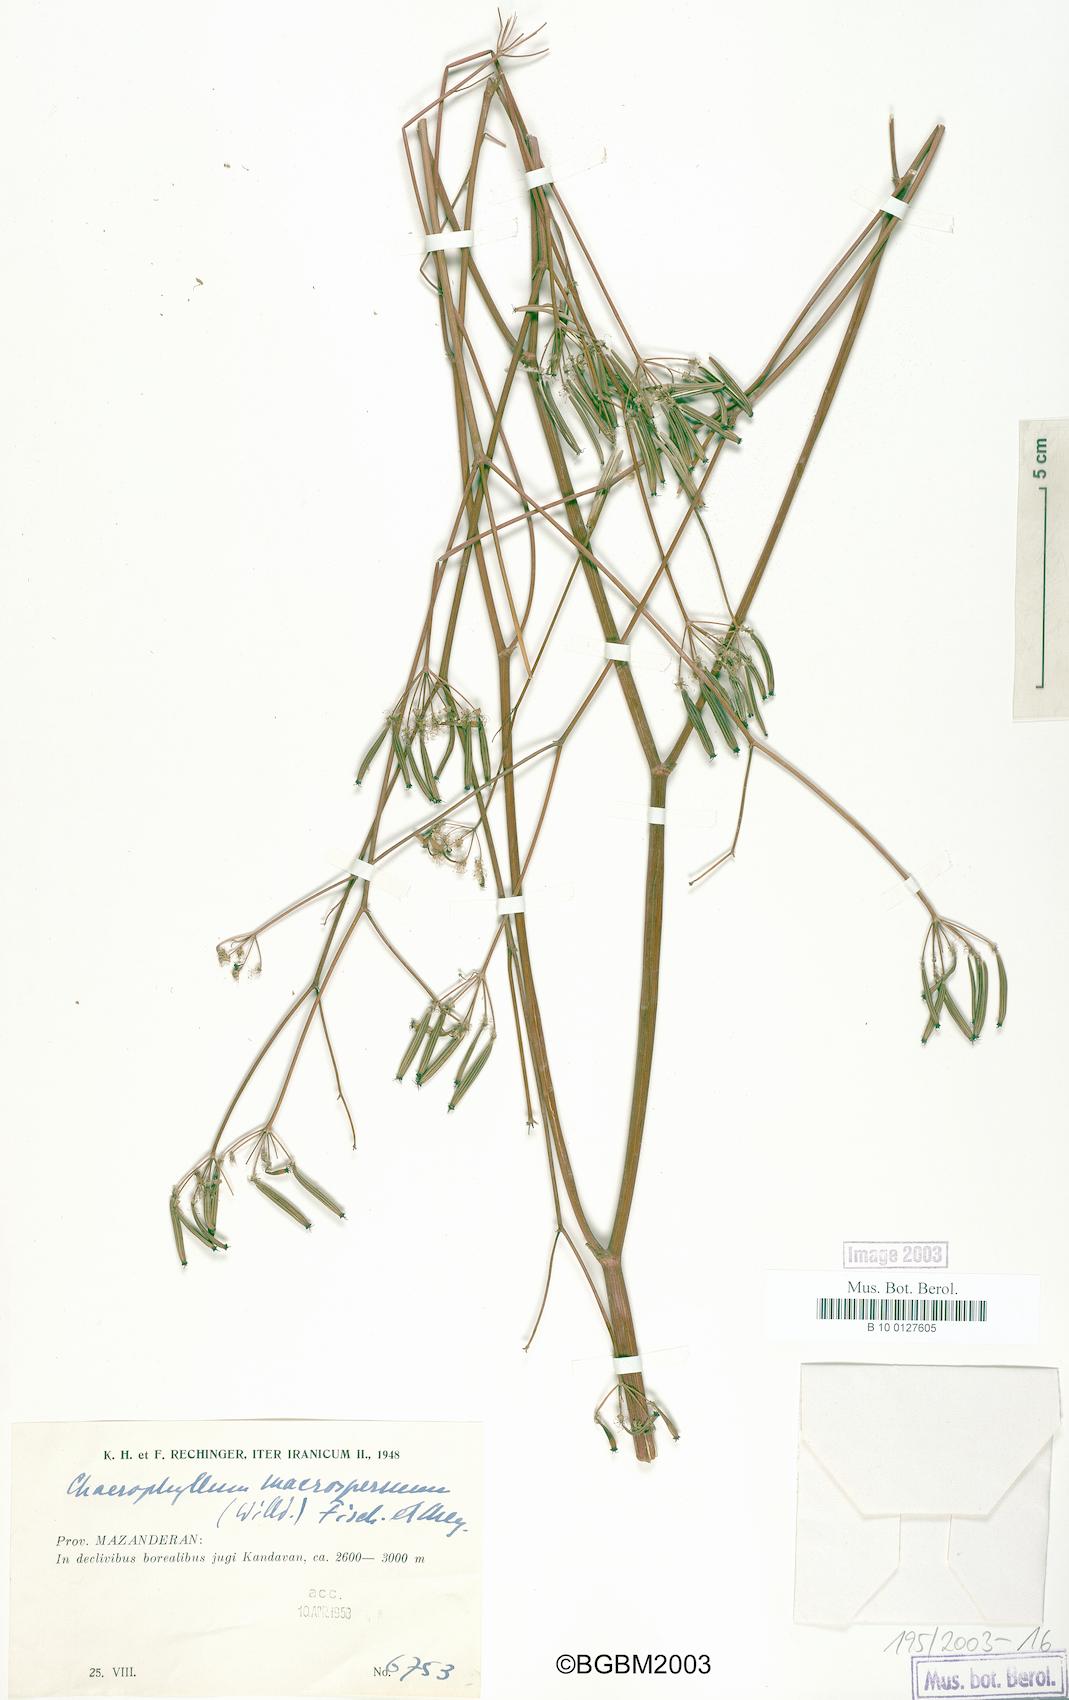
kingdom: Plantae
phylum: Tracheophyta
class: Magnoliopsida
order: Apiales
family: Apiaceae
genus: Chaerophyllum
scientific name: Chaerophyllum macrospermum
